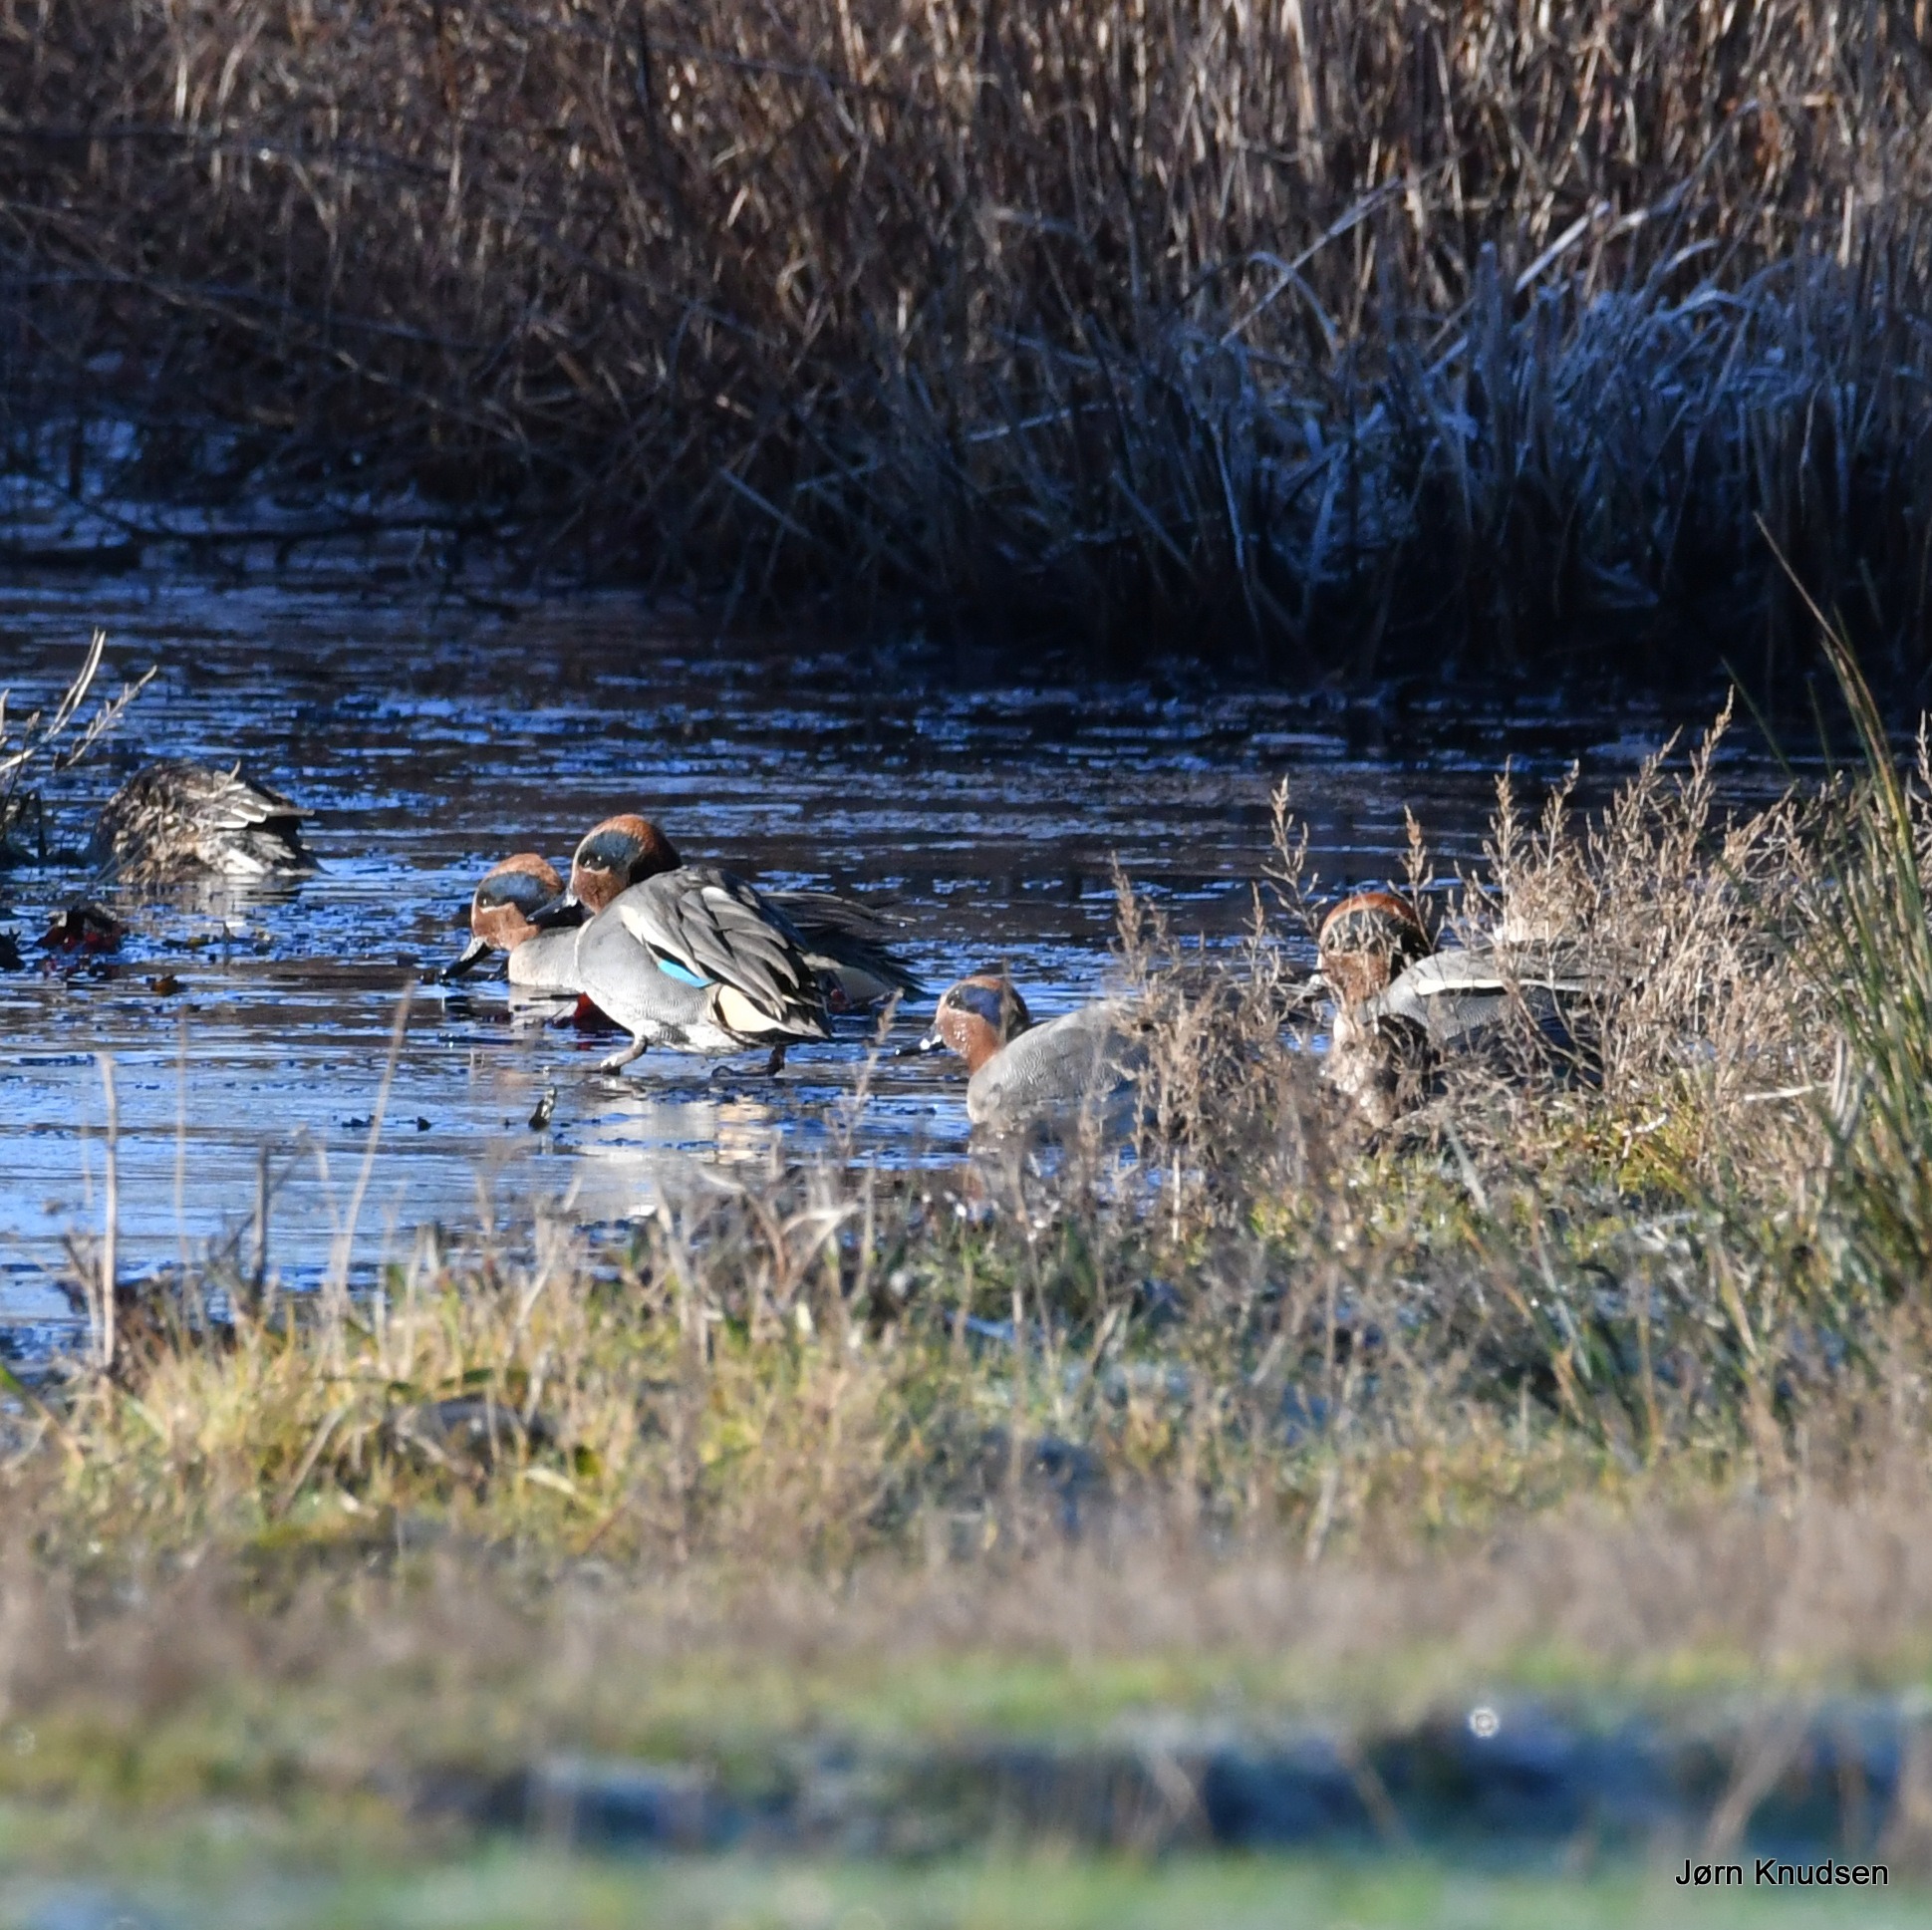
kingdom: Animalia
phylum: Chordata
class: Aves
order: Anseriformes
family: Anatidae
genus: Anas
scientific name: Anas crecca
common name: Krikand
